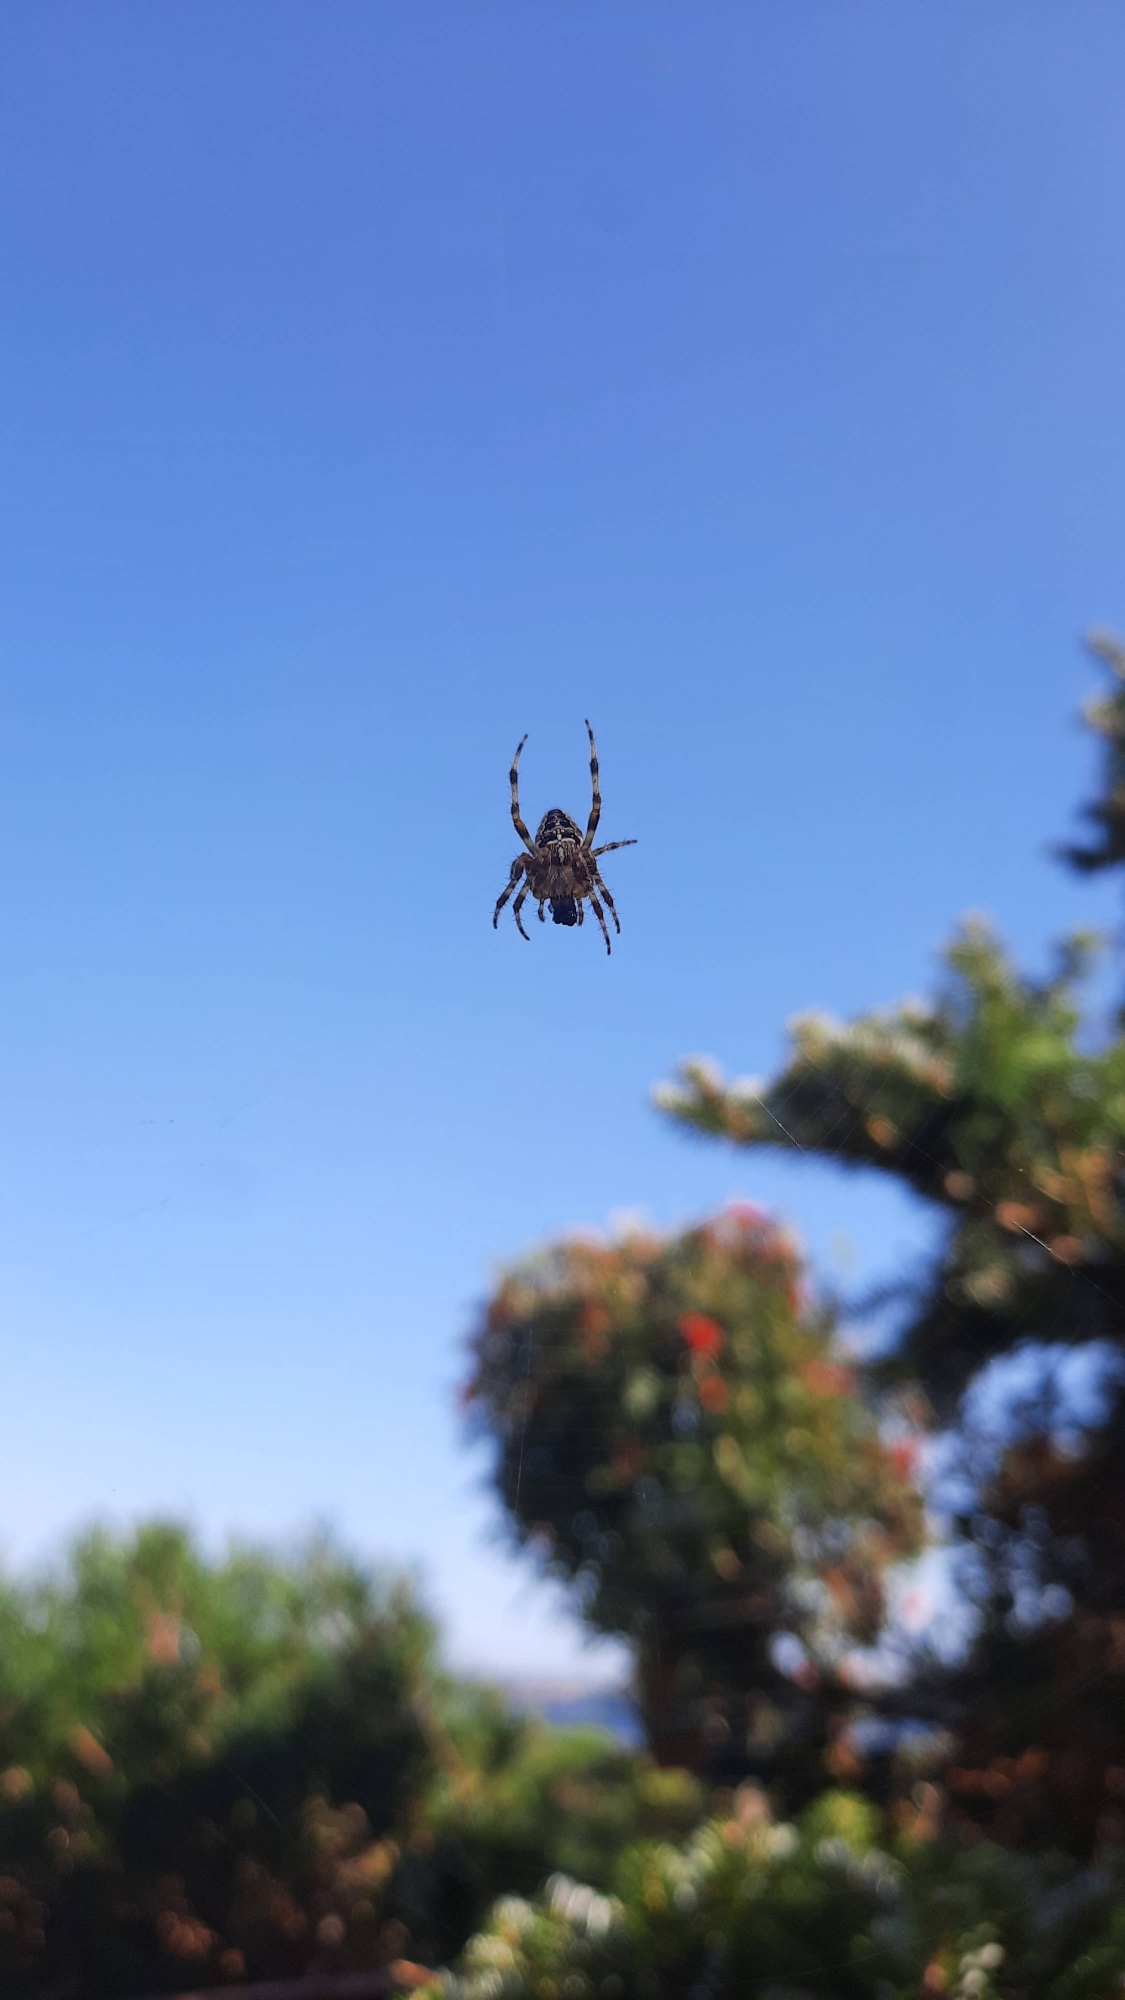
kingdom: Animalia
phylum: Arthropoda
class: Arachnida
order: Araneae
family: Araneidae
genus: Araneus
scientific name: Araneus diadematus
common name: Korsedderkop
